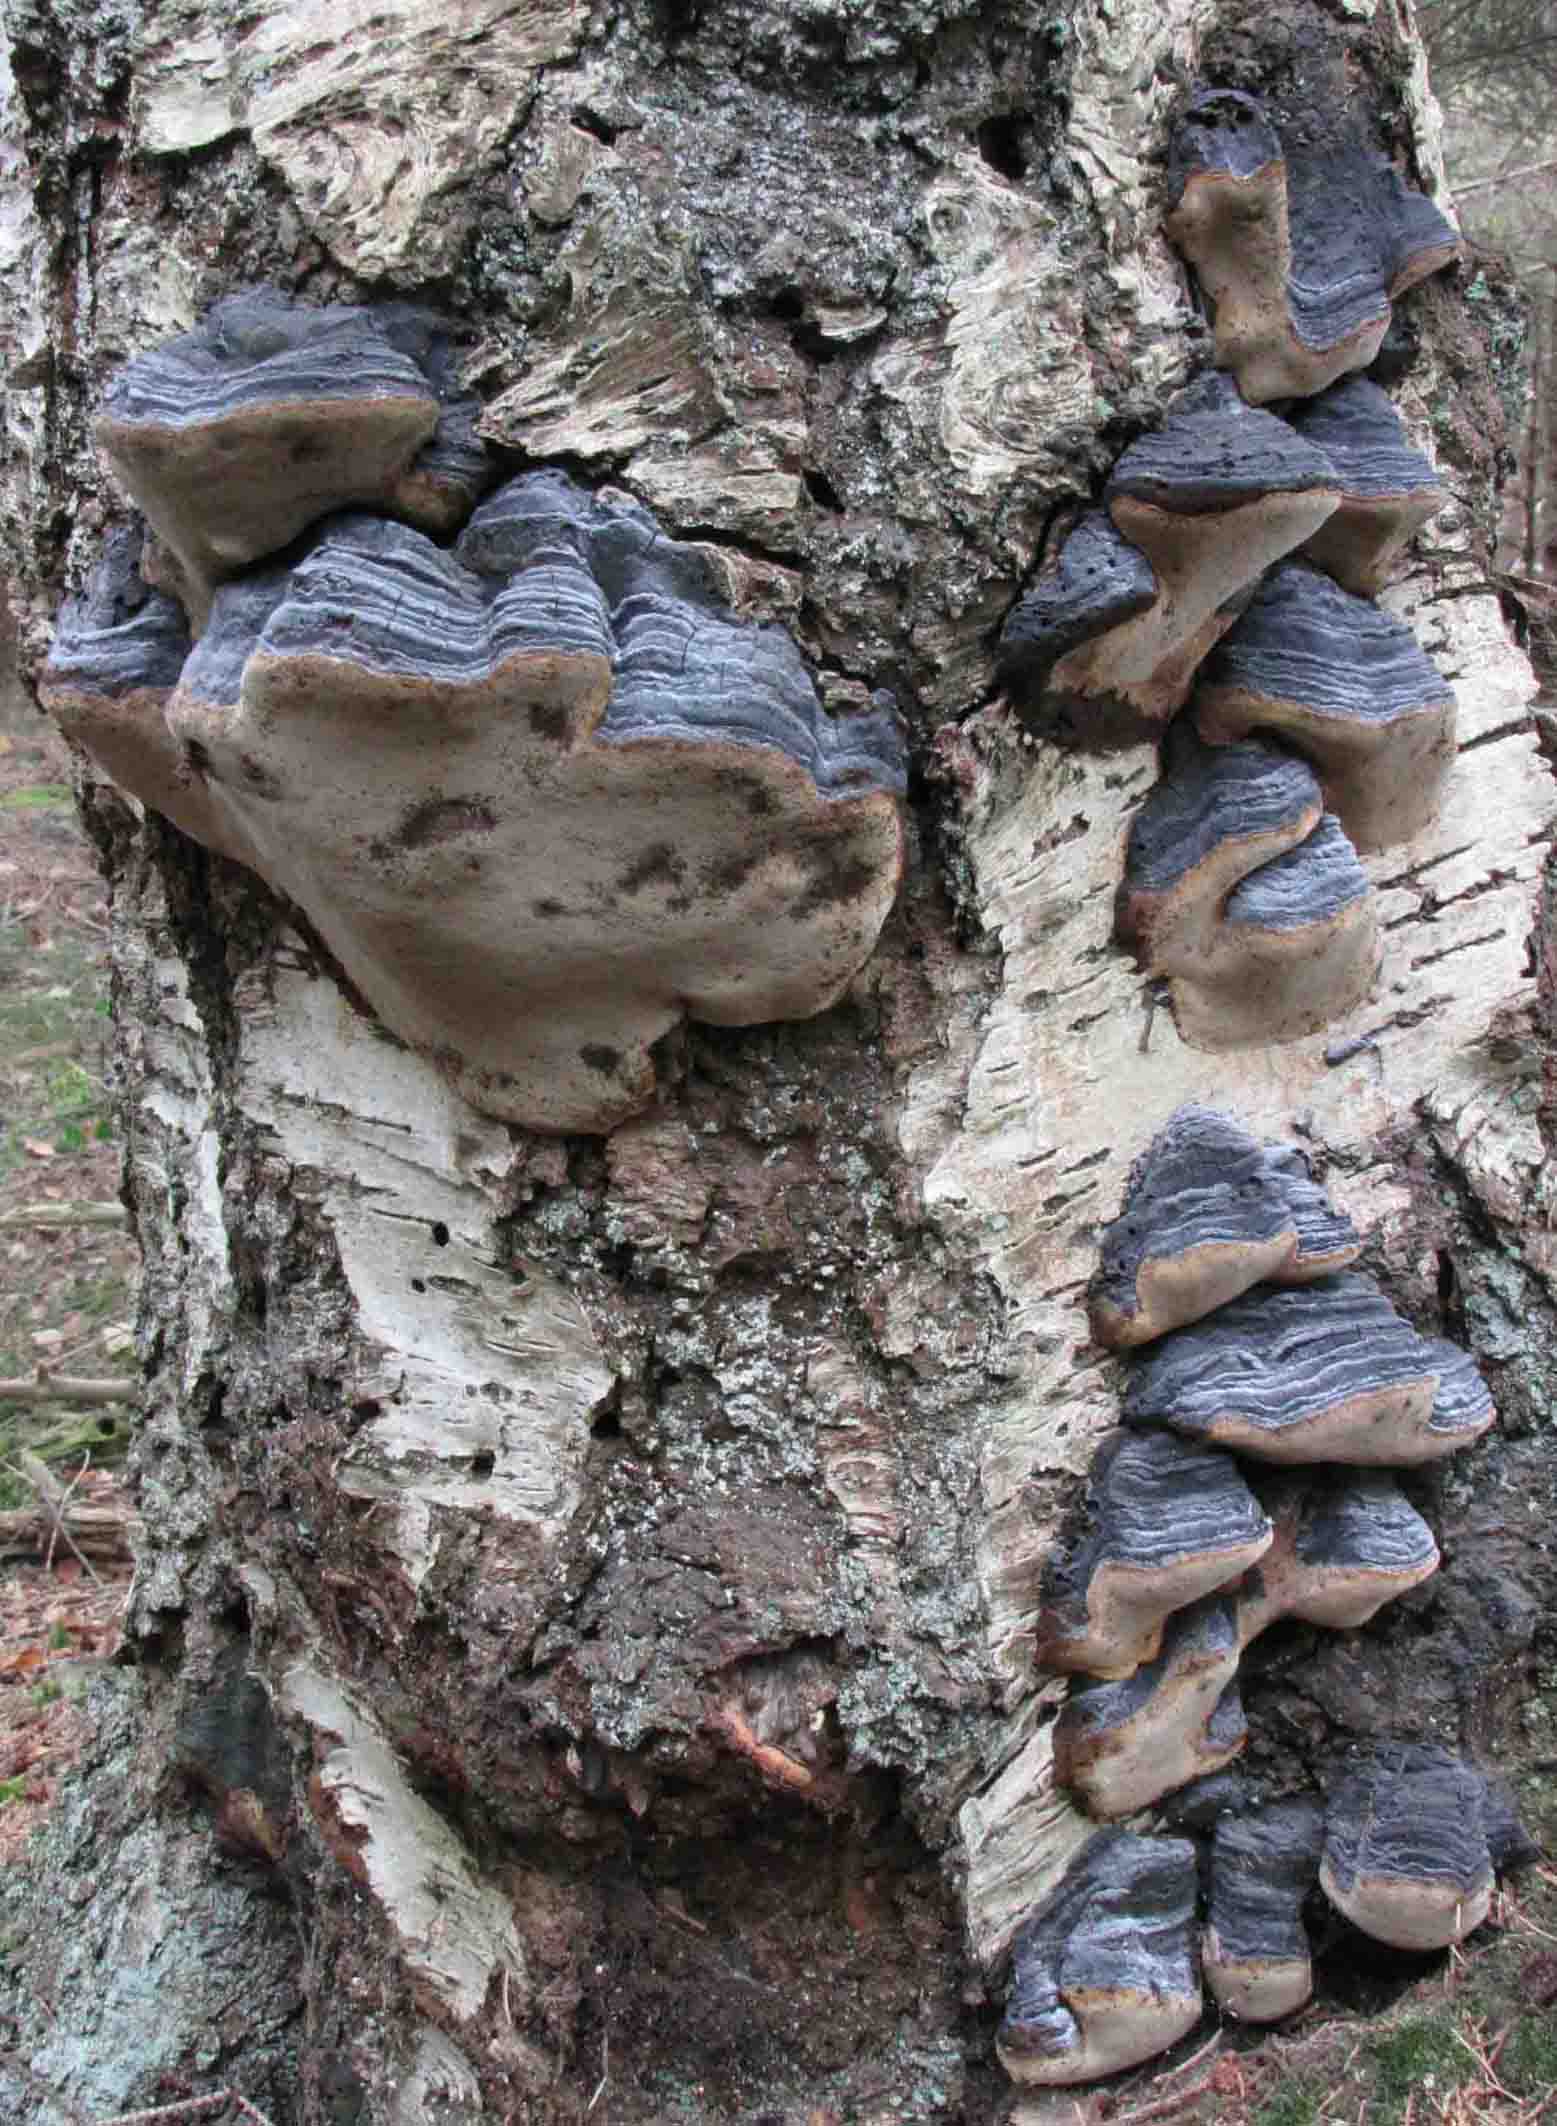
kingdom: Fungi
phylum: Basidiomycota
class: Agaricomycetes
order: Hymenochaetales
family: Hymenochaetaceae
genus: Phellinus
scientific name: Phellinus lundellii
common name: birke-ildporesvamp
